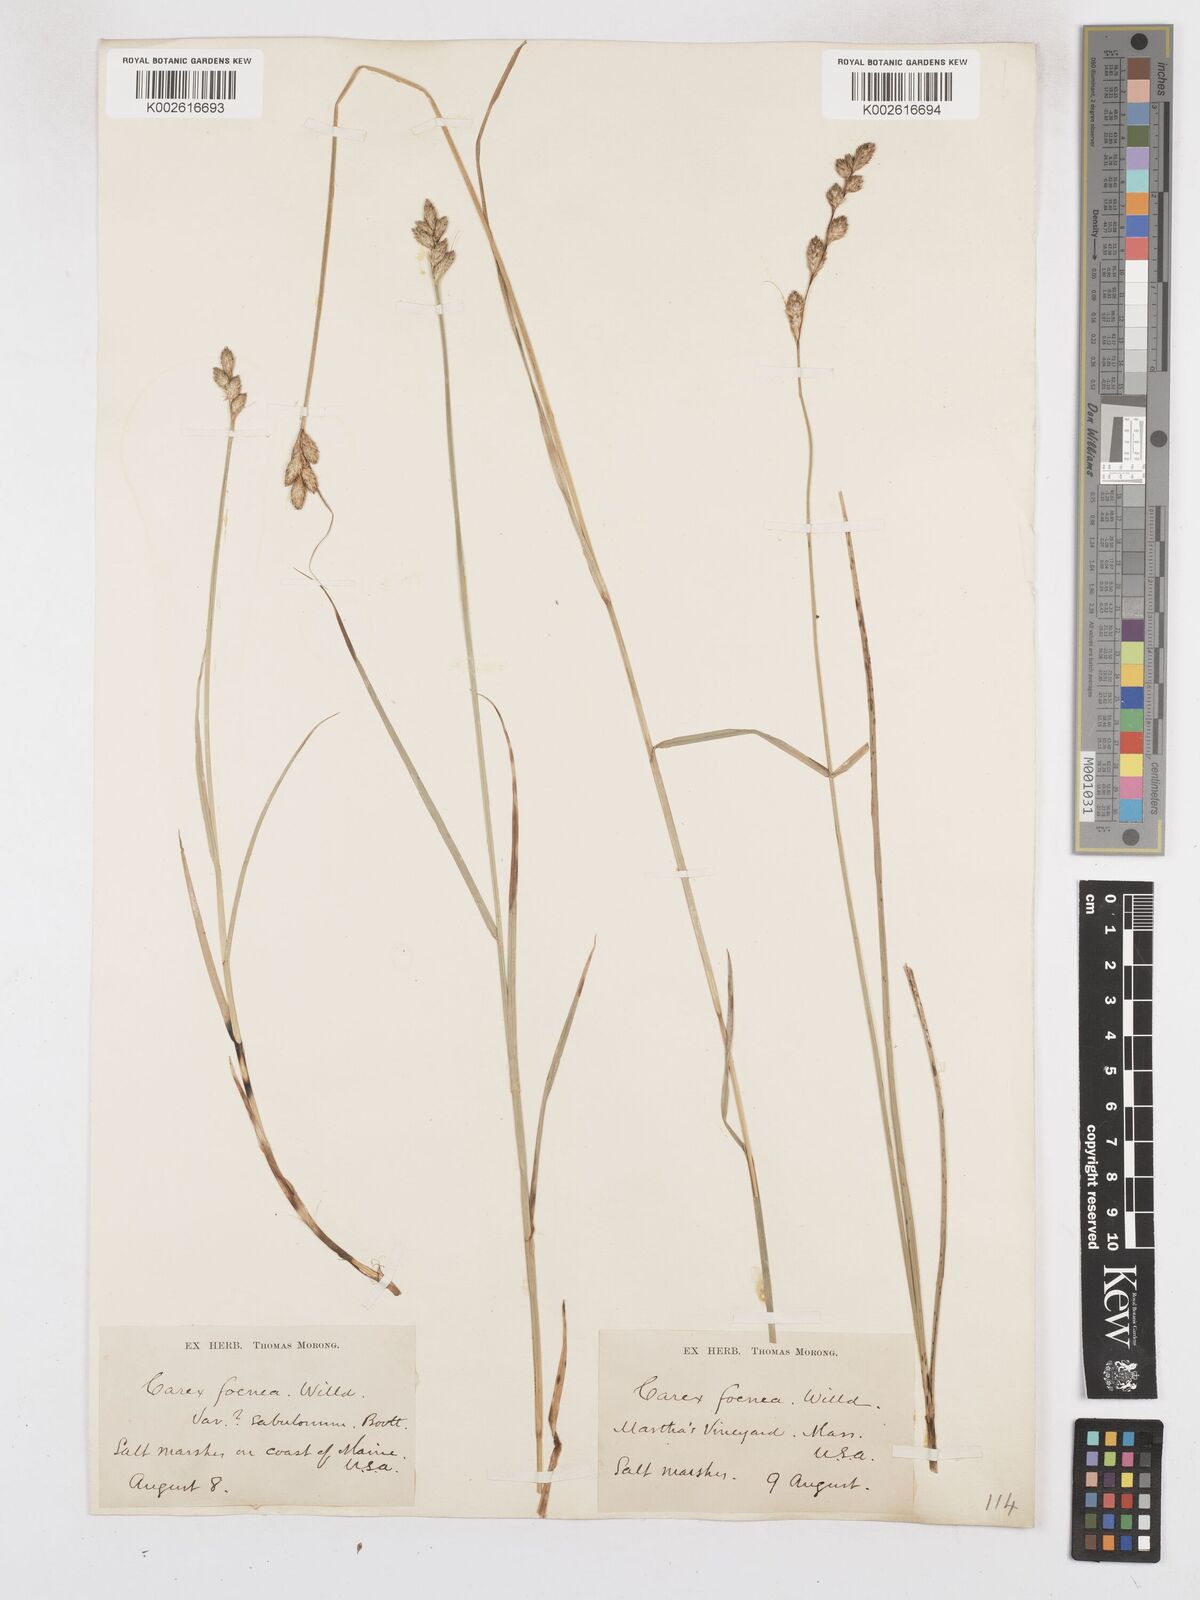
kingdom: Plantae
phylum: Tracheophyta
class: Liliopsida
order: Poales
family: Cyperaceae
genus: Carex
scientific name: Carex argyrantha
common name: Silvery-flowered sedge
